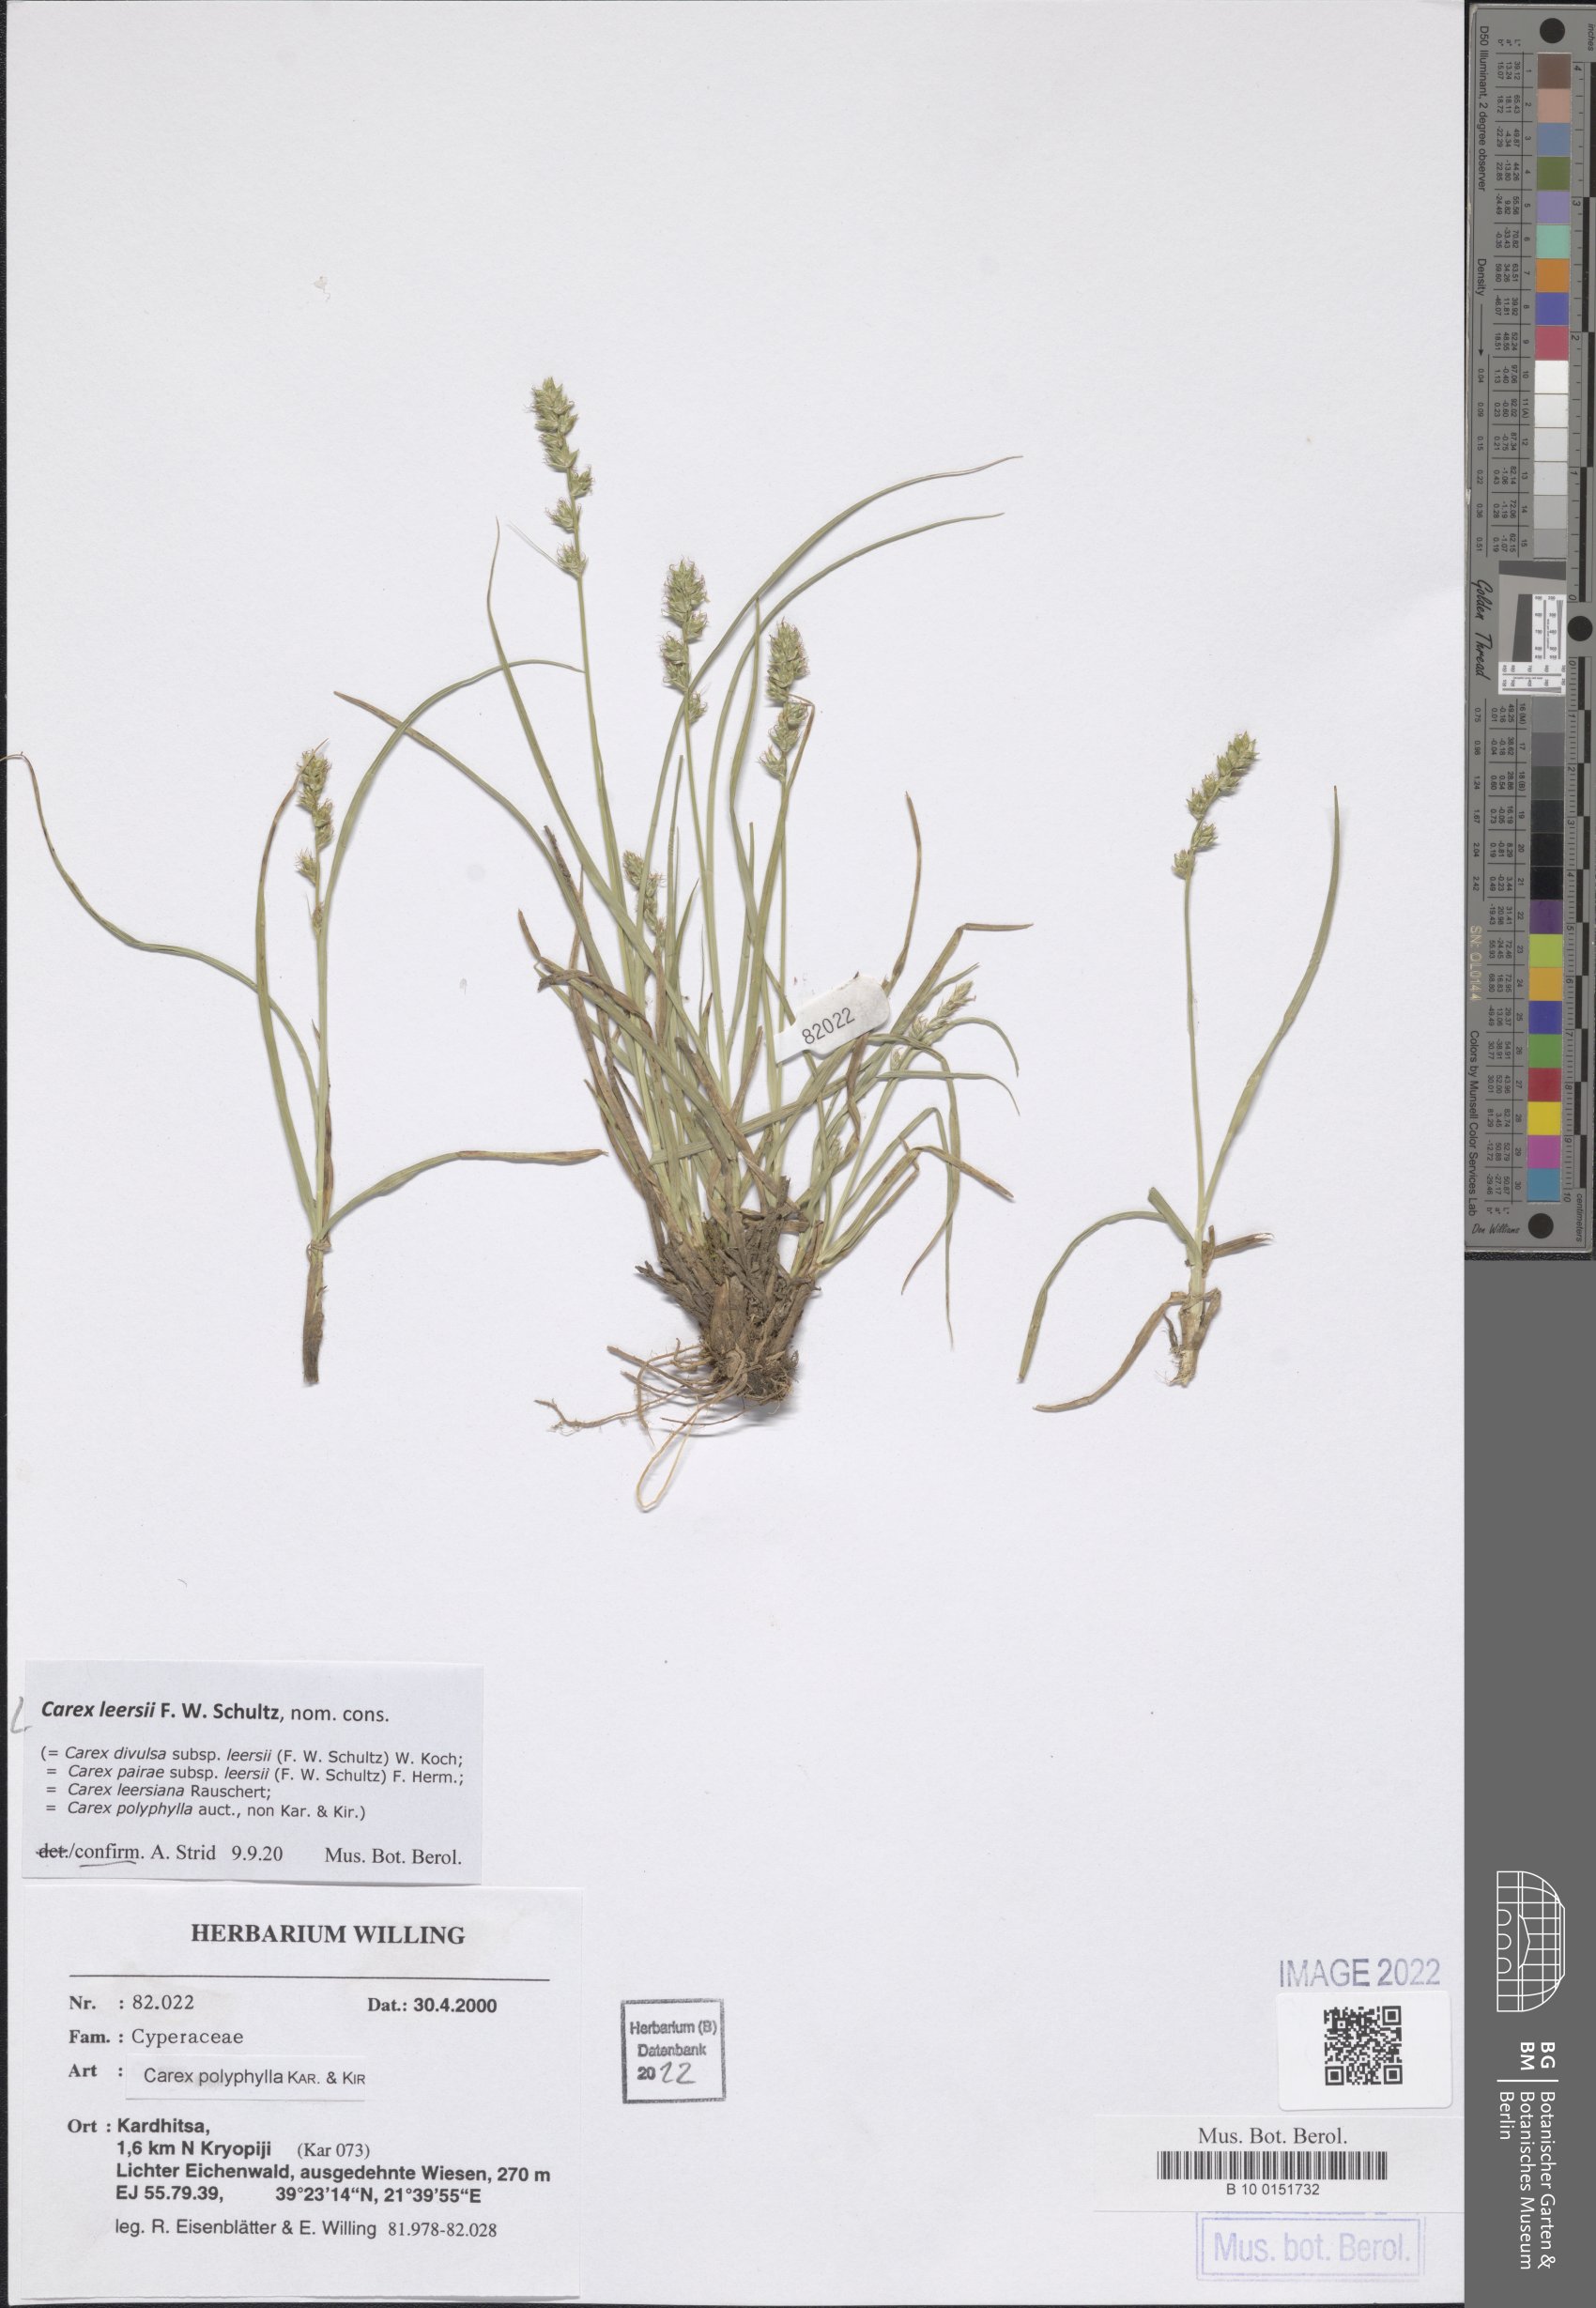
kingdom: Plantae
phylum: Tracheophyta
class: Liliopsida
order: Poales
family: Cyperaceae
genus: Carex
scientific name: Carex leersii
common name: Leers' sedge
